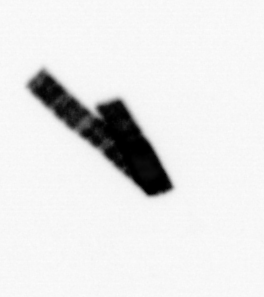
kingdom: Chromista
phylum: Ochrophyta
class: Bacillariophyceae
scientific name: Bacillariophyceae
